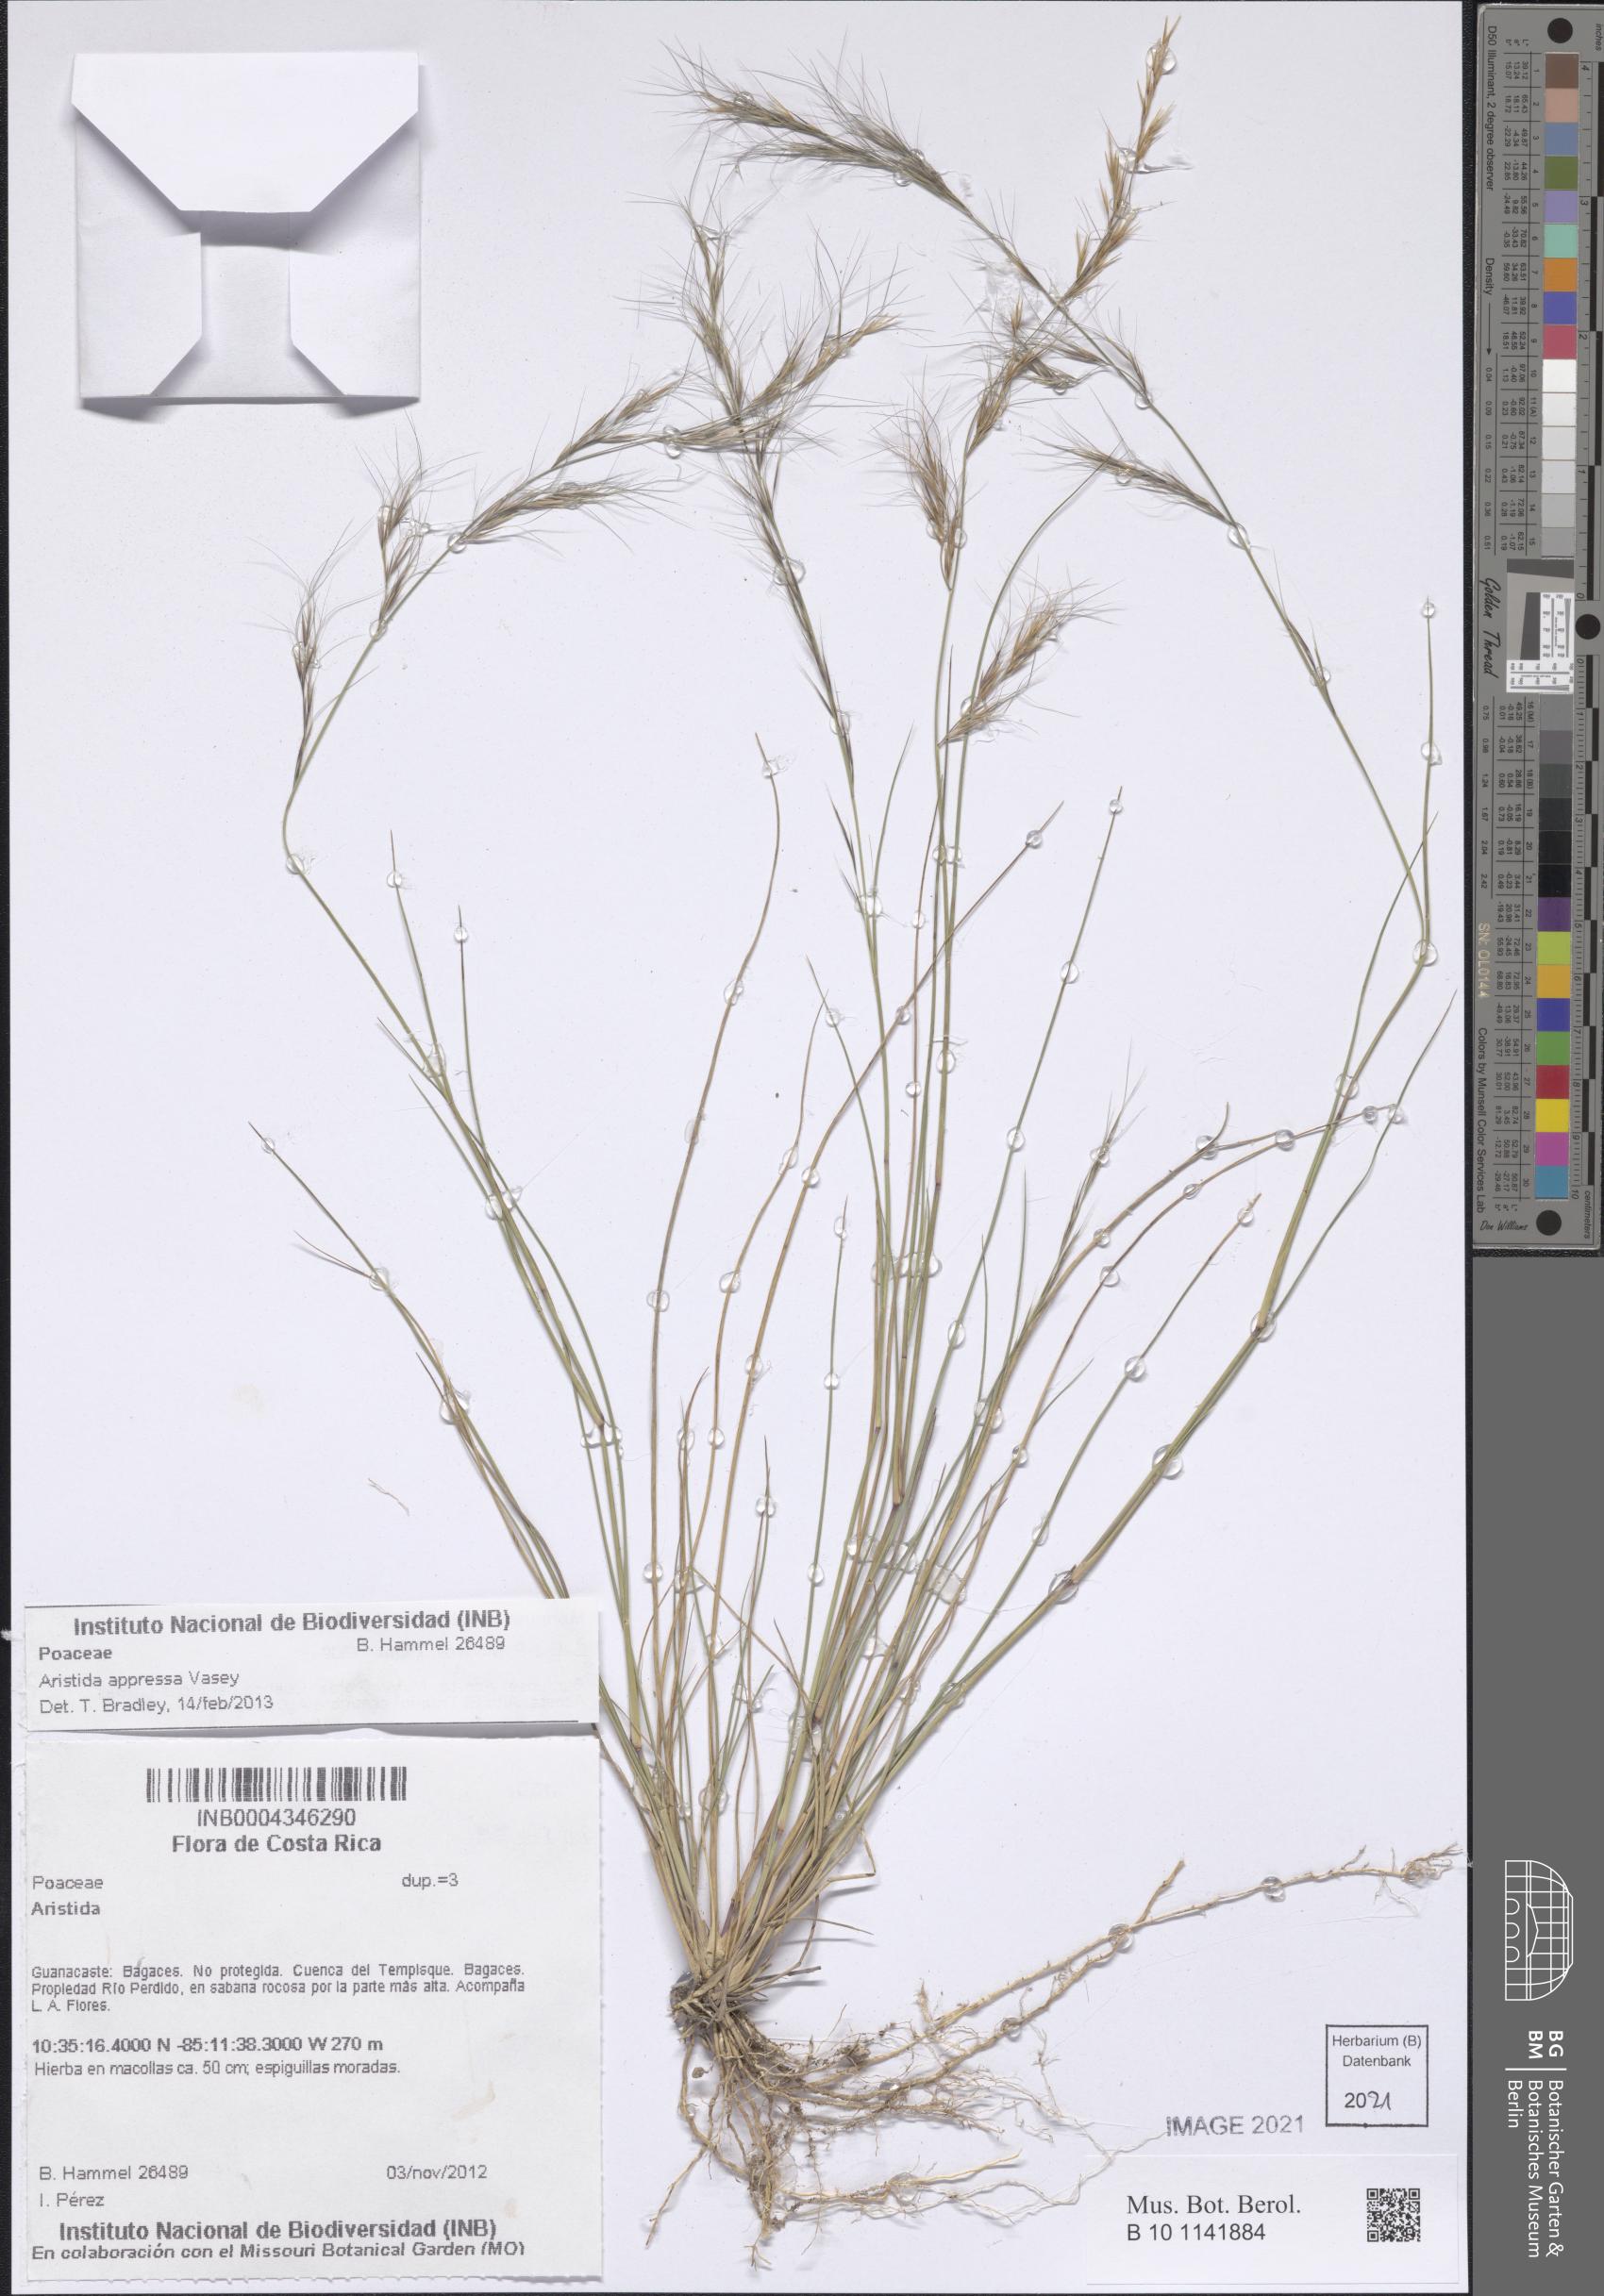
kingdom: Plantae
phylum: Tracheophyta
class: Liliopsida
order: Poales
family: Poaceae
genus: Aristida
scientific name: Aristida appressa
